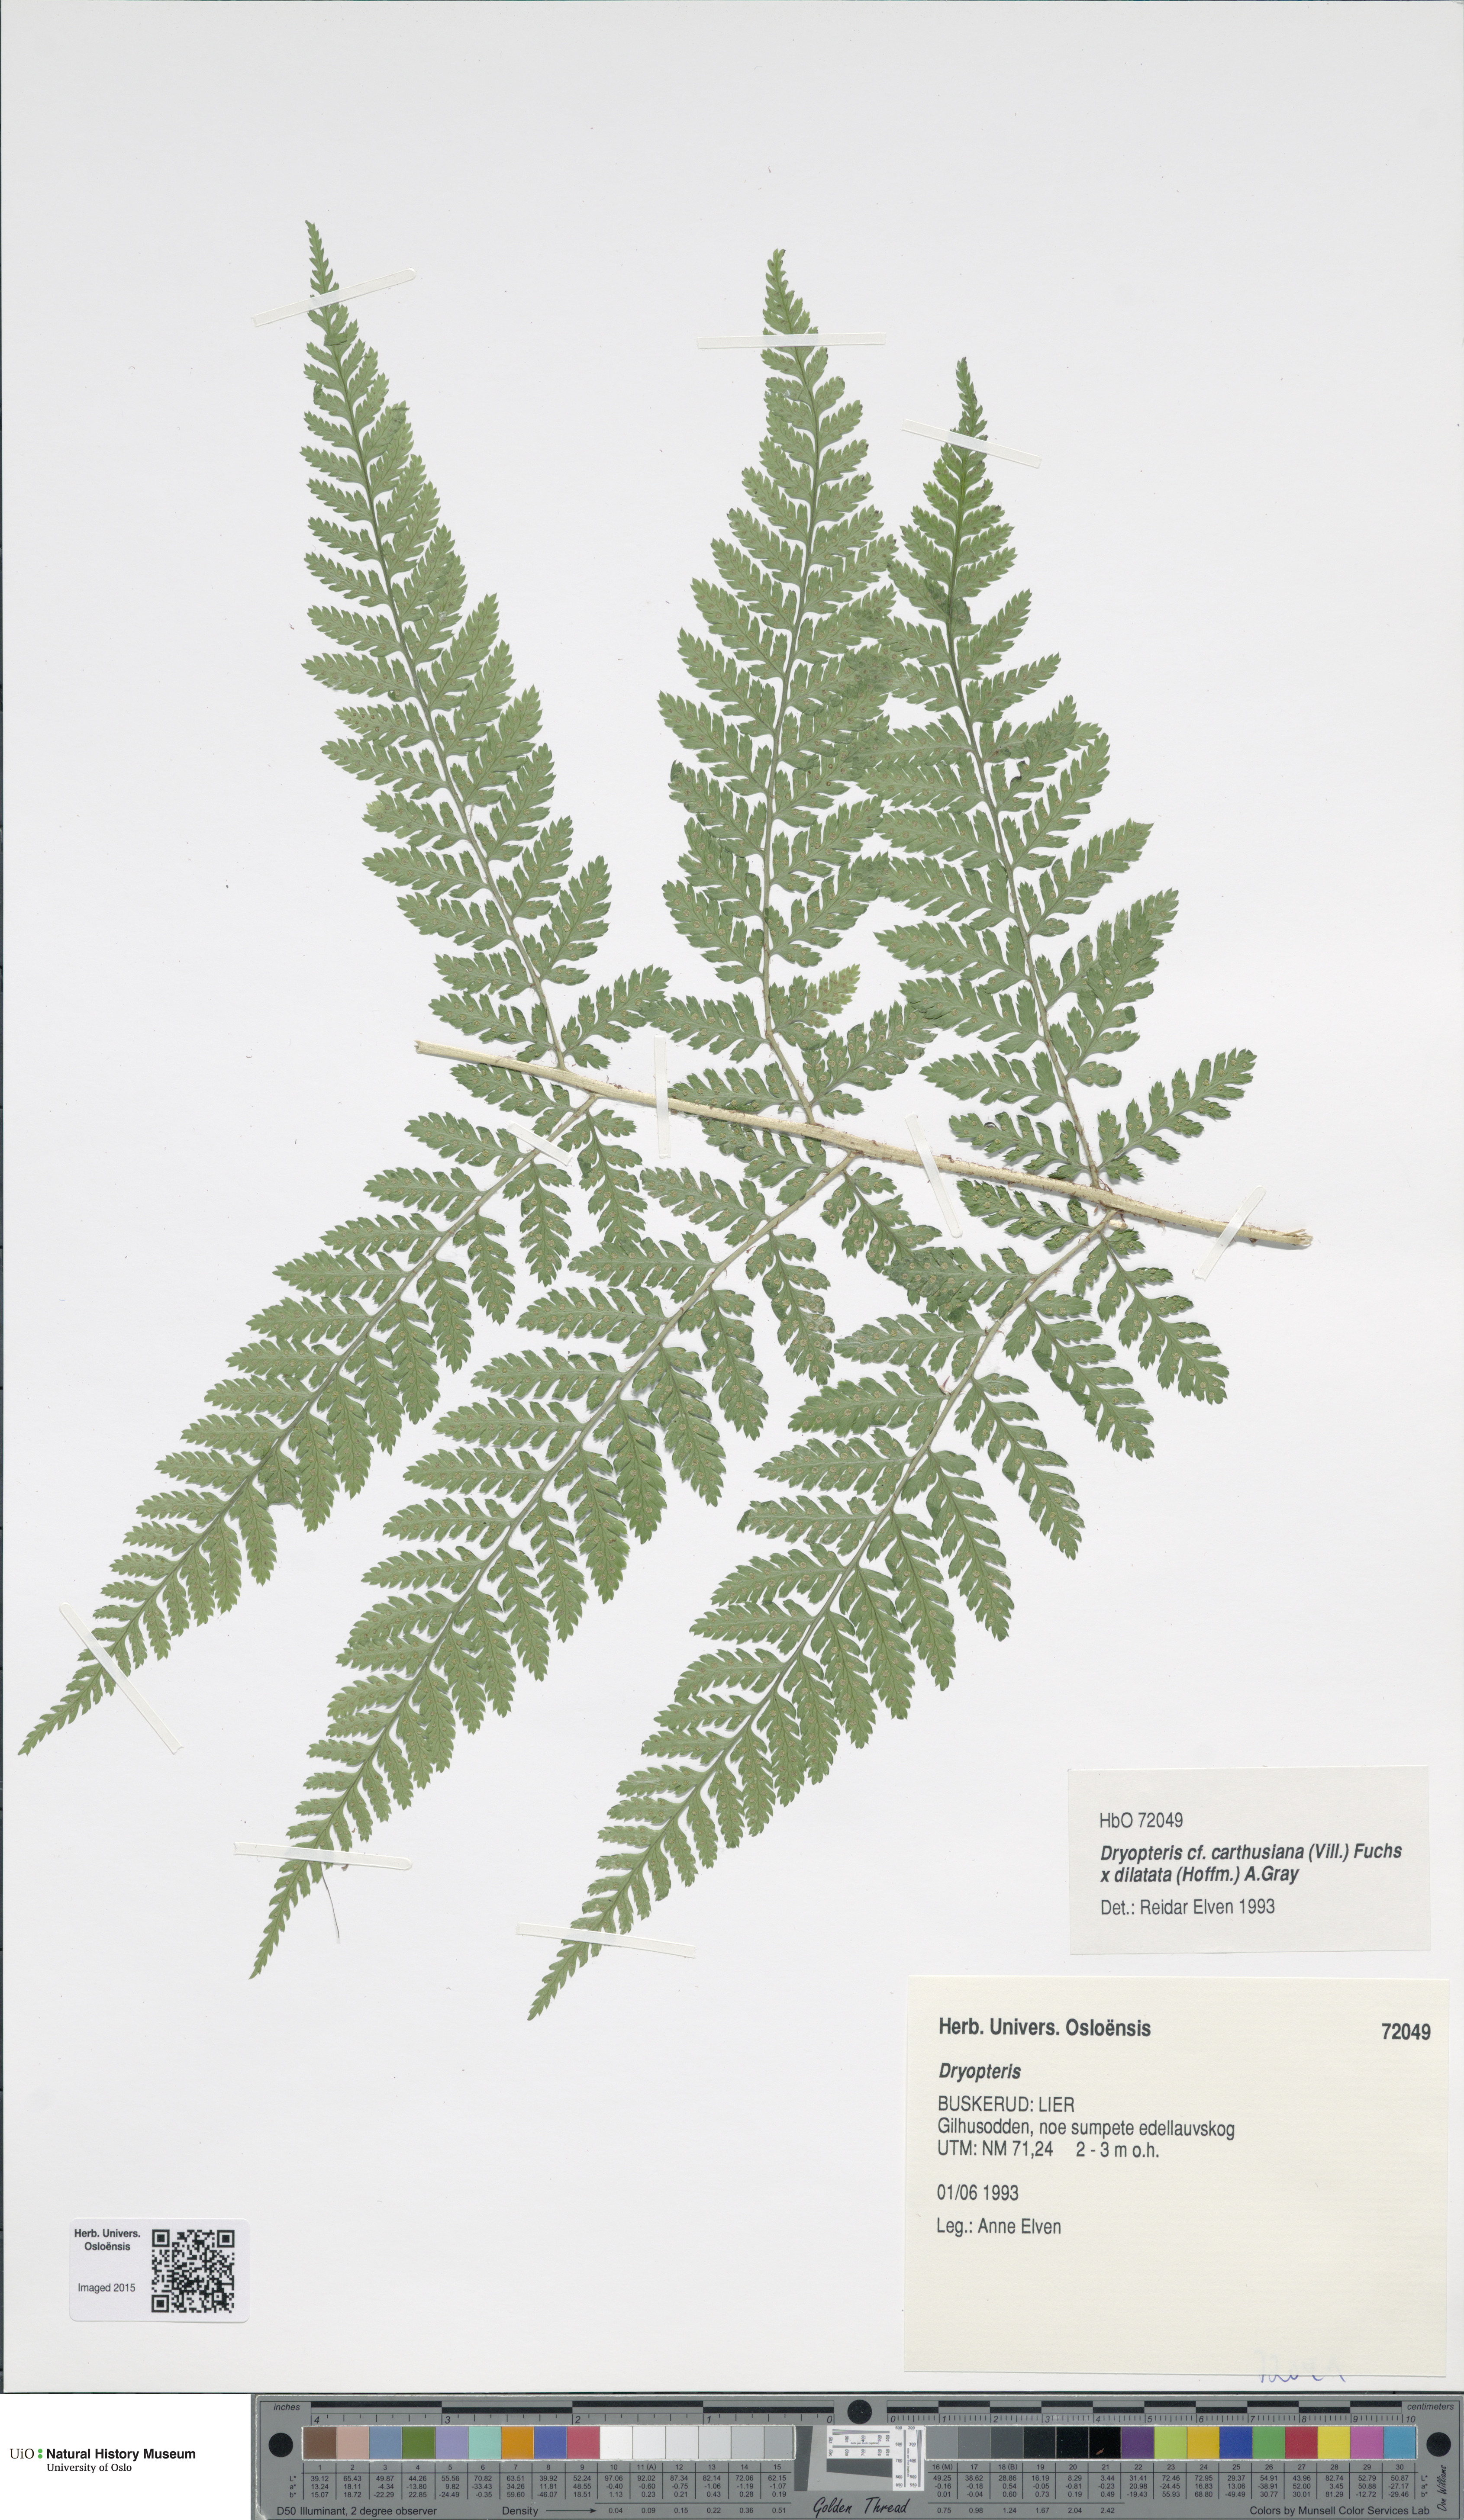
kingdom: Plantae
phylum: Tracheophyta
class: Polypodiopsida
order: Polypodiales
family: Dryopteridaceae
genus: Dryopteris
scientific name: Dryopteris
